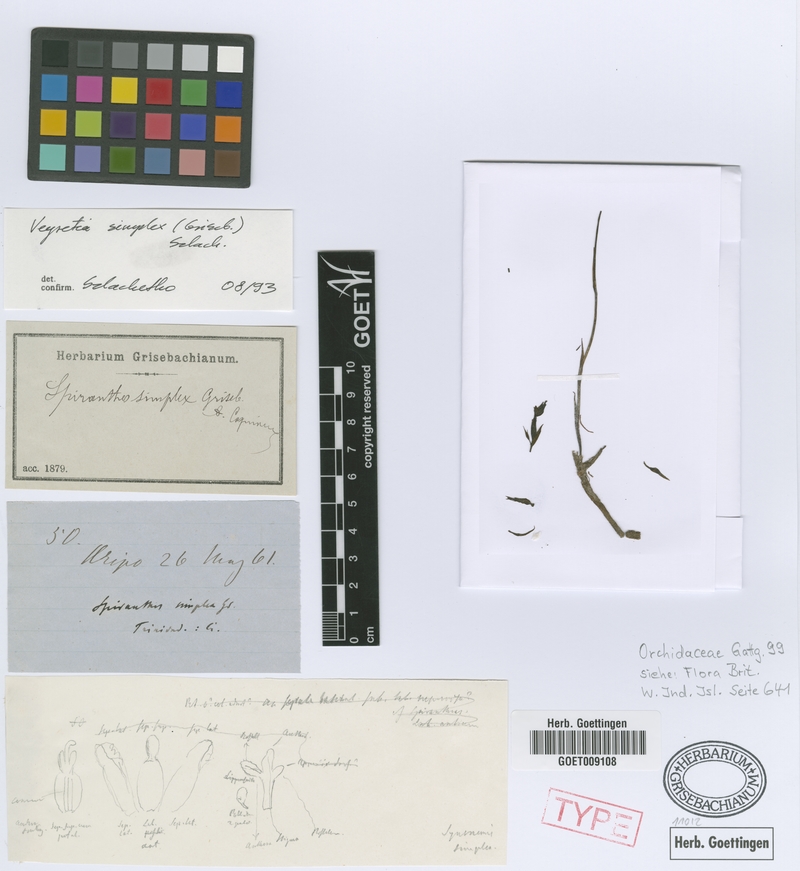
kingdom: Plantae
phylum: Tracheophyta
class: Liliopsida
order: Asparagales
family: Orchidaceae
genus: Veyretia
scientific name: Veyretia simplex
